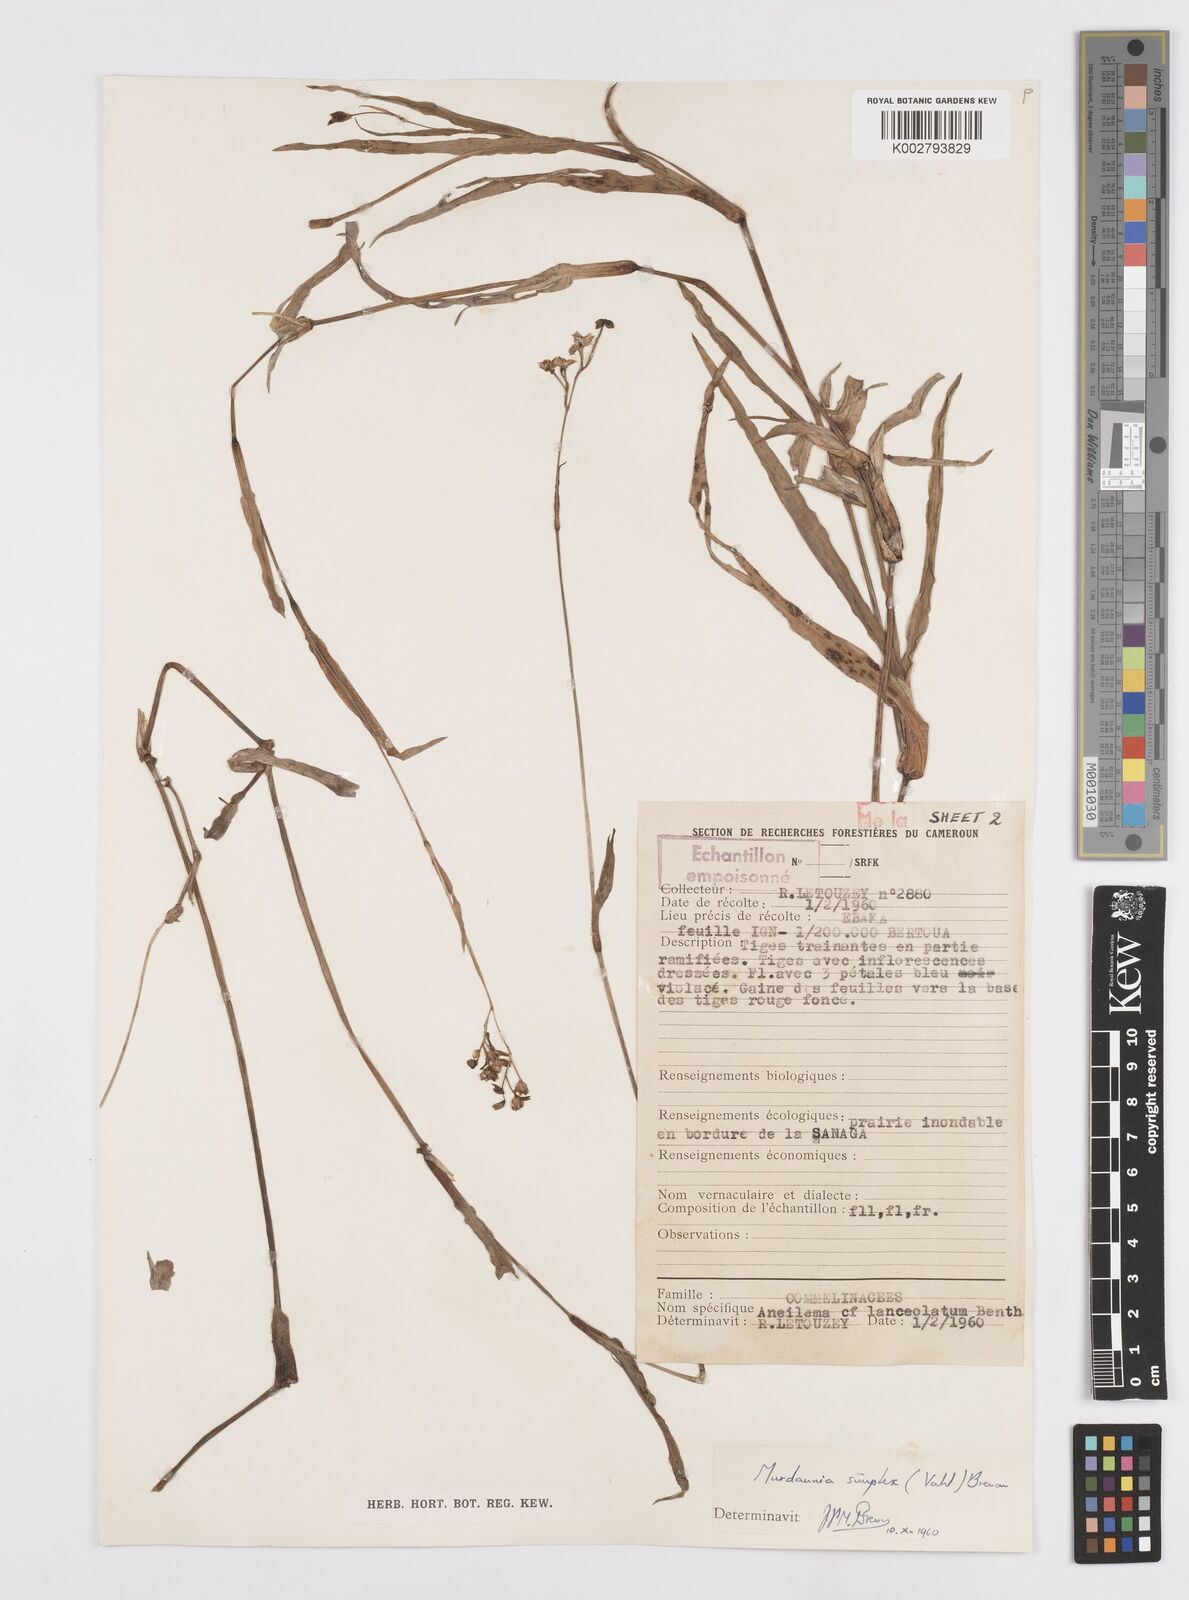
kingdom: Plantae
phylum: Tracheophyta
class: Liliopsida
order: Commelinales
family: Commelinaceae
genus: Murdannia
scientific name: Murdannia simplex
